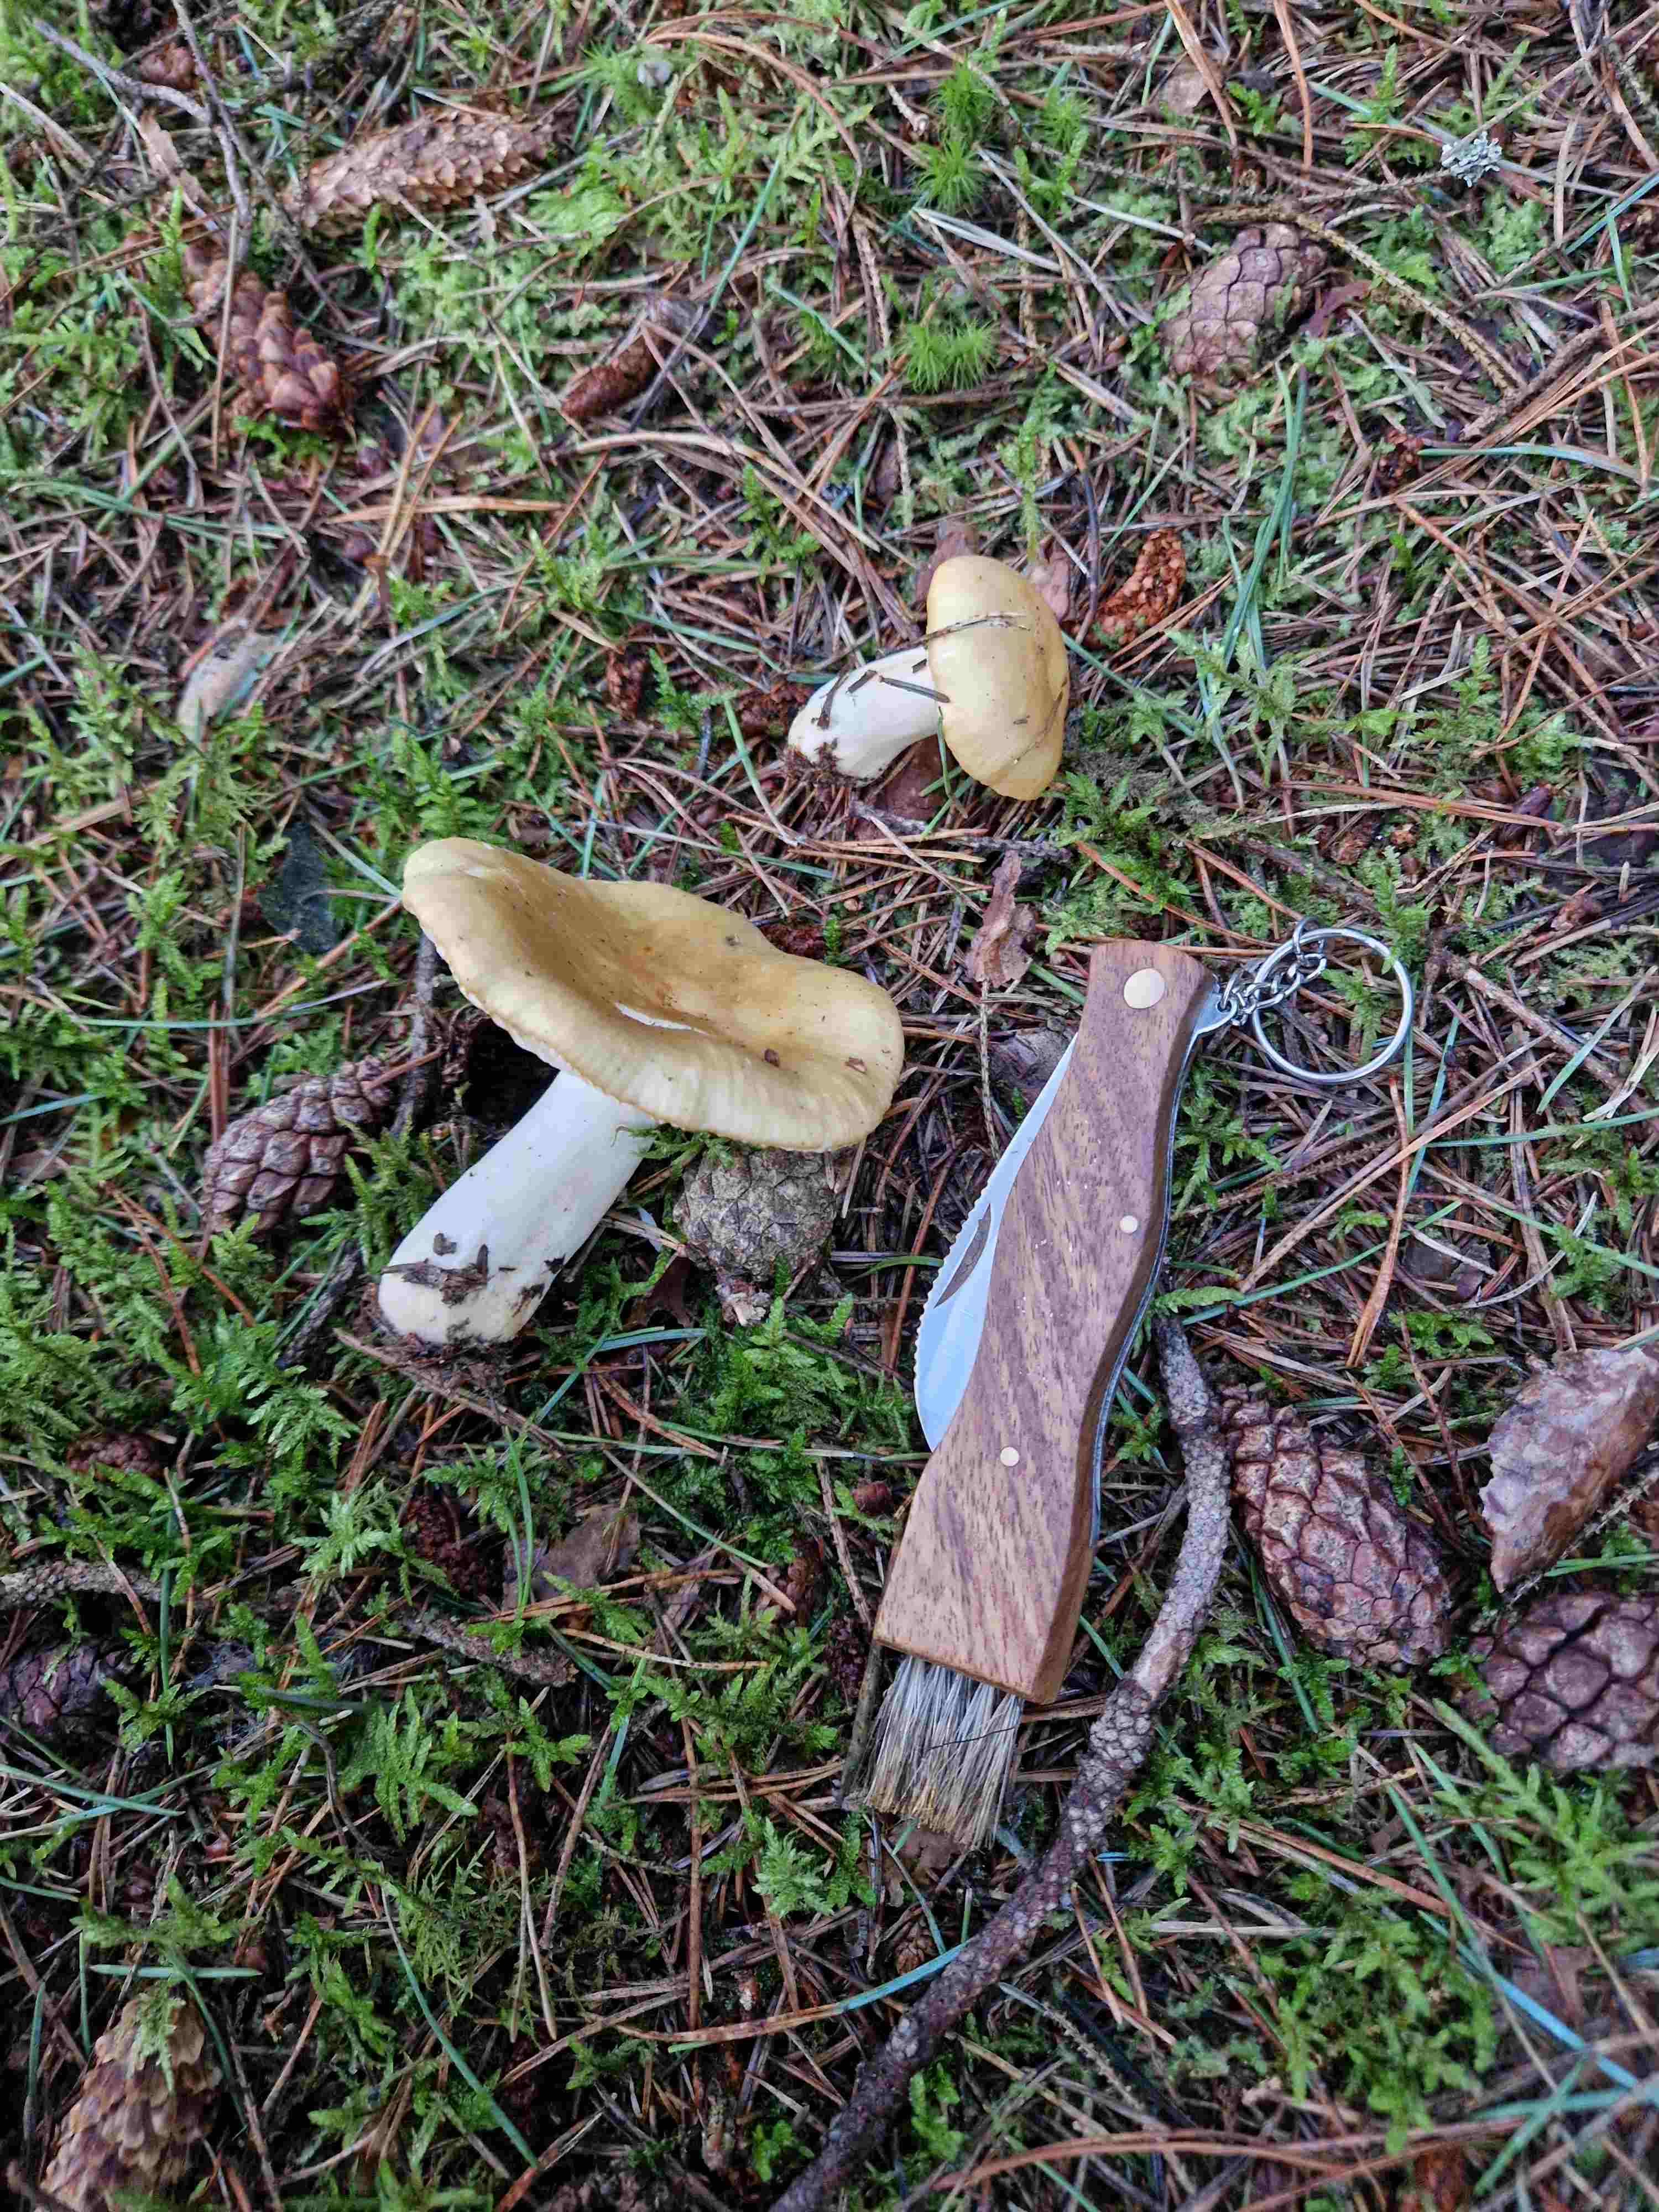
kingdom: Fungi
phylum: Basidiomycota
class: Agaricomycetes
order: Russulales
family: Russulaceae
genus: Russula
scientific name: Russula ochroleuca
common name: okkergul skørhat
